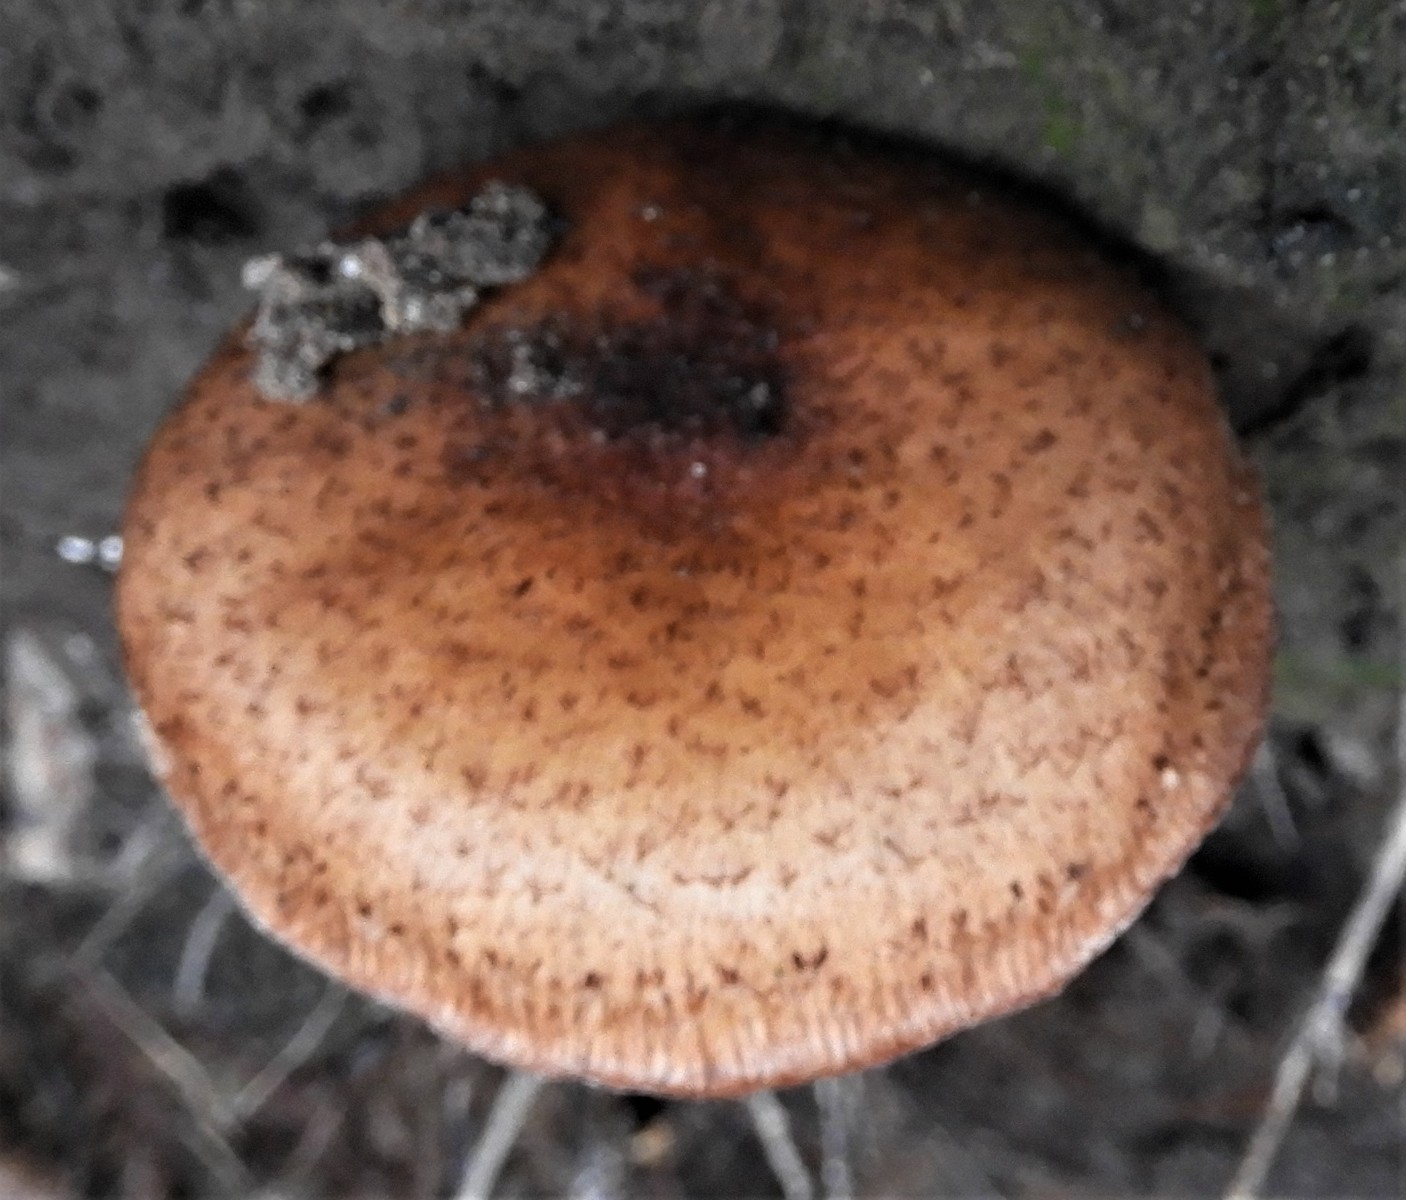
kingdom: Fungi
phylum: Basidiomycota
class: Agaricomycetes
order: Agaricales
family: Physalacriaceae
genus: Armillaria
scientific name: Armillaria
